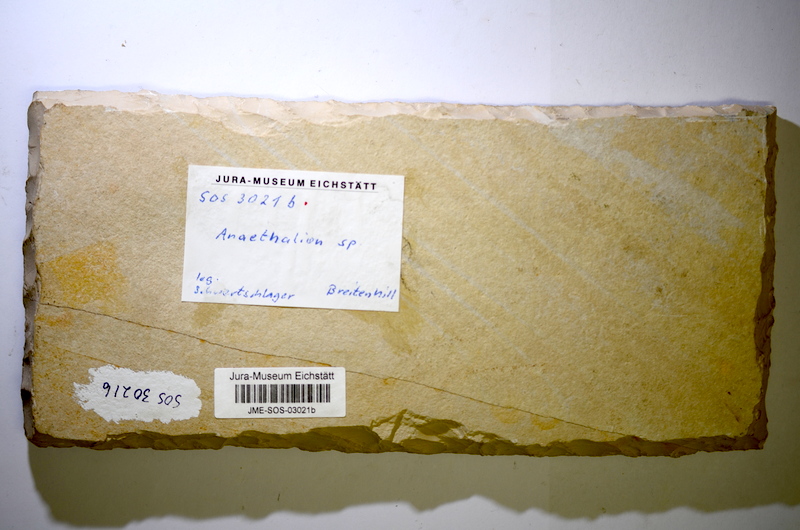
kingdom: Animalia
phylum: Chordata
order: Elopiformes
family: Anaethalionidae
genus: Anaethalion
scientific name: Anaethalion
